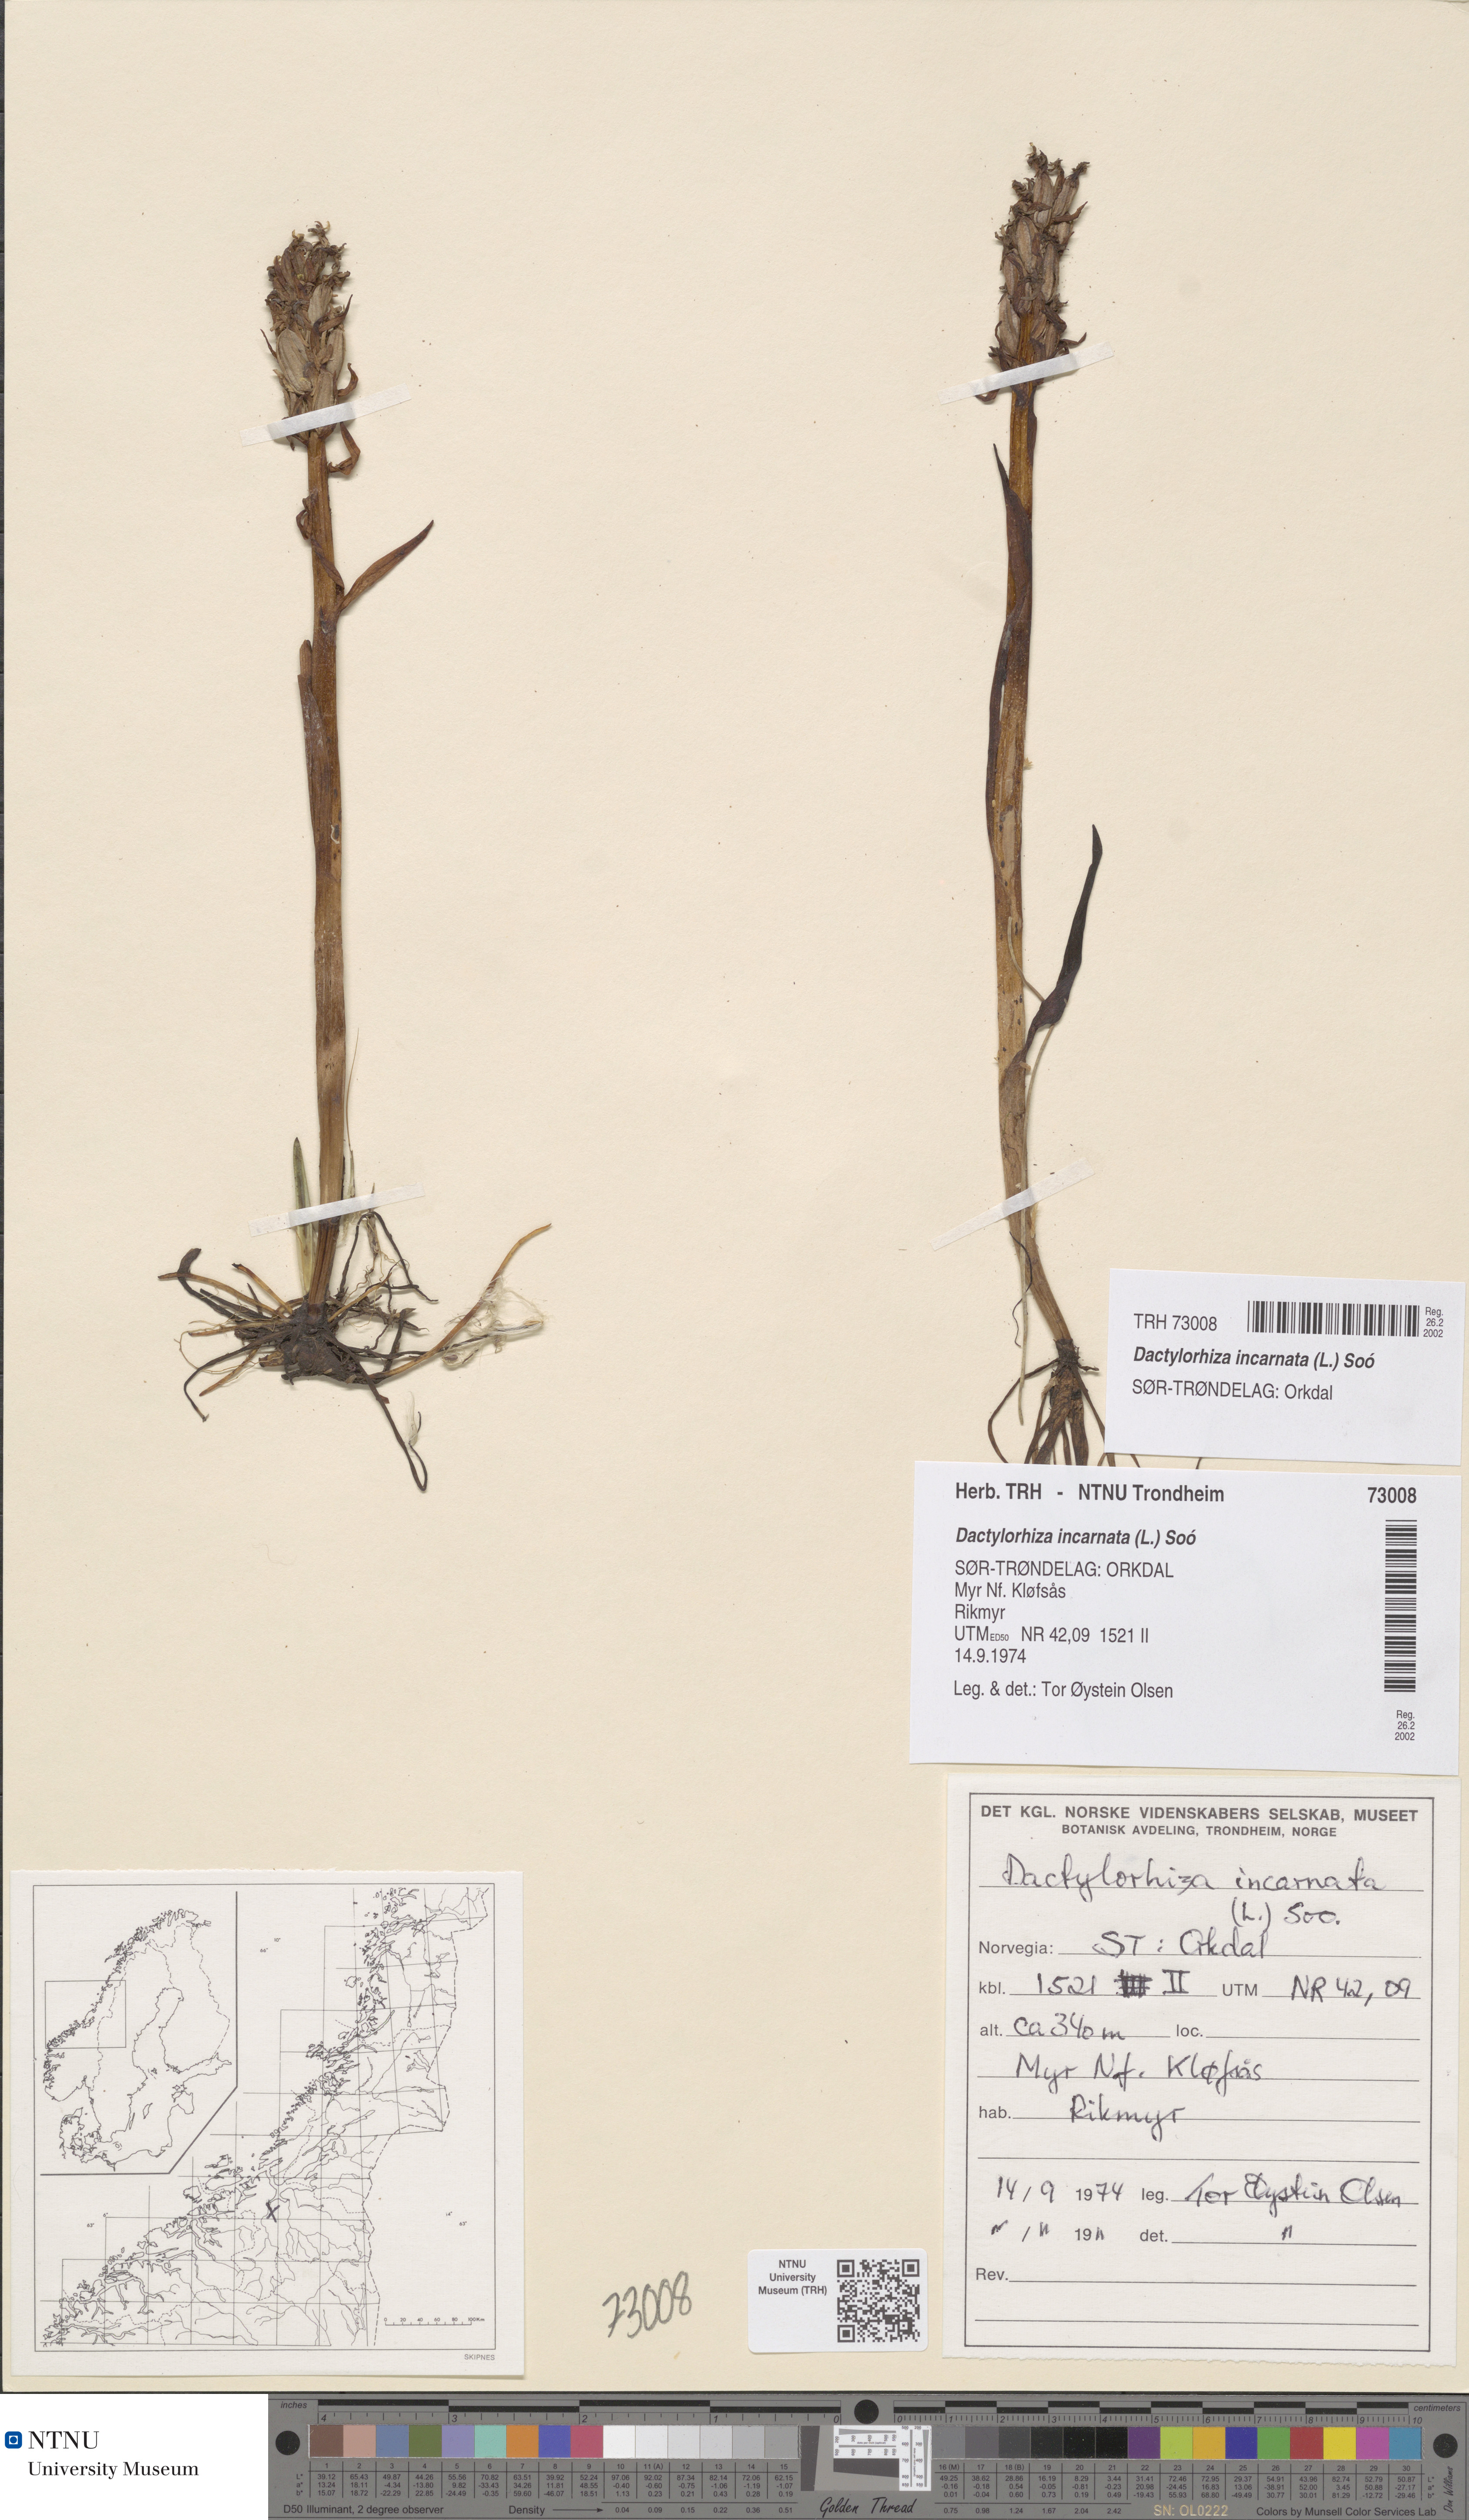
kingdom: Plantae
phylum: Tracheophyta
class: Liliopsida
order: Asparagales
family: Orchidaceae
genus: Dactylorhiza
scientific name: Dactylorhiza incarnata
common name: Early marsh-orchid
